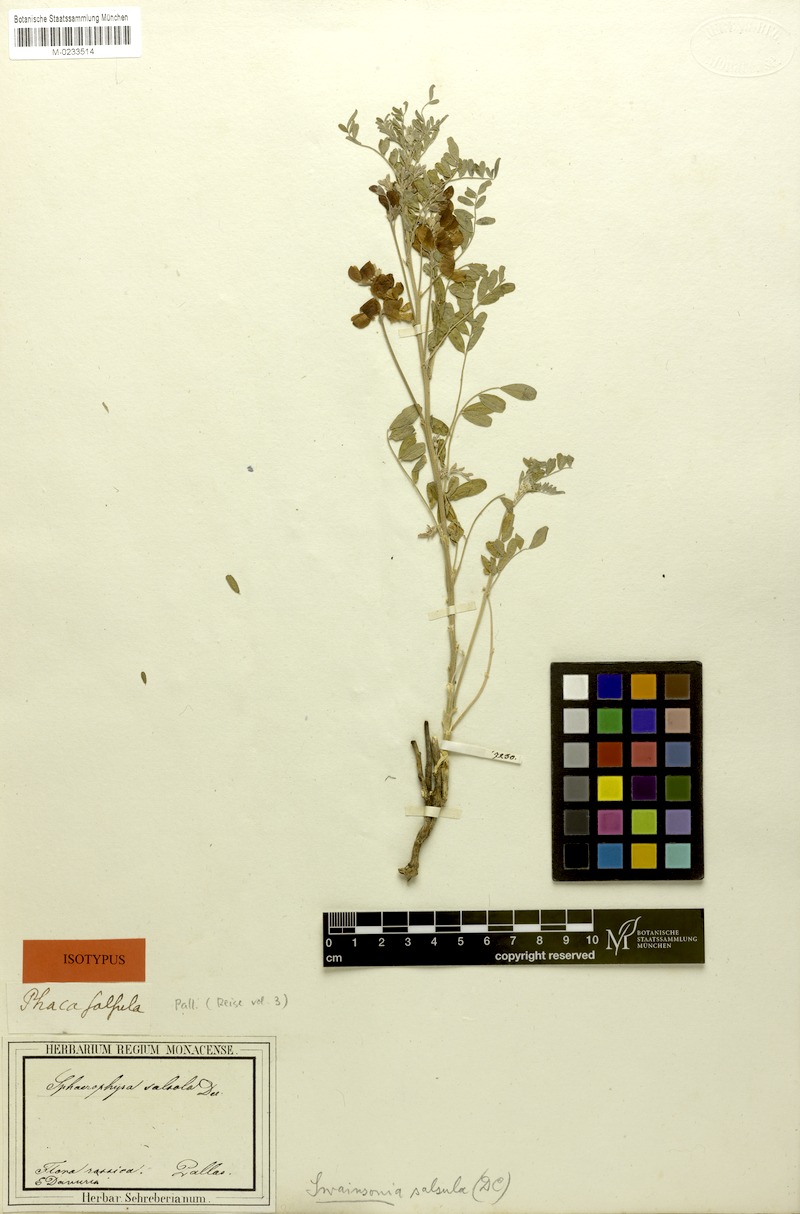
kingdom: Plantae
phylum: Tracheophyta
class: Magnoliopsida
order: Fabales
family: Fabaceae
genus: Sphaerophysa
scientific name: Sphaerophysa salsula
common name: Alkali swainsonpea
